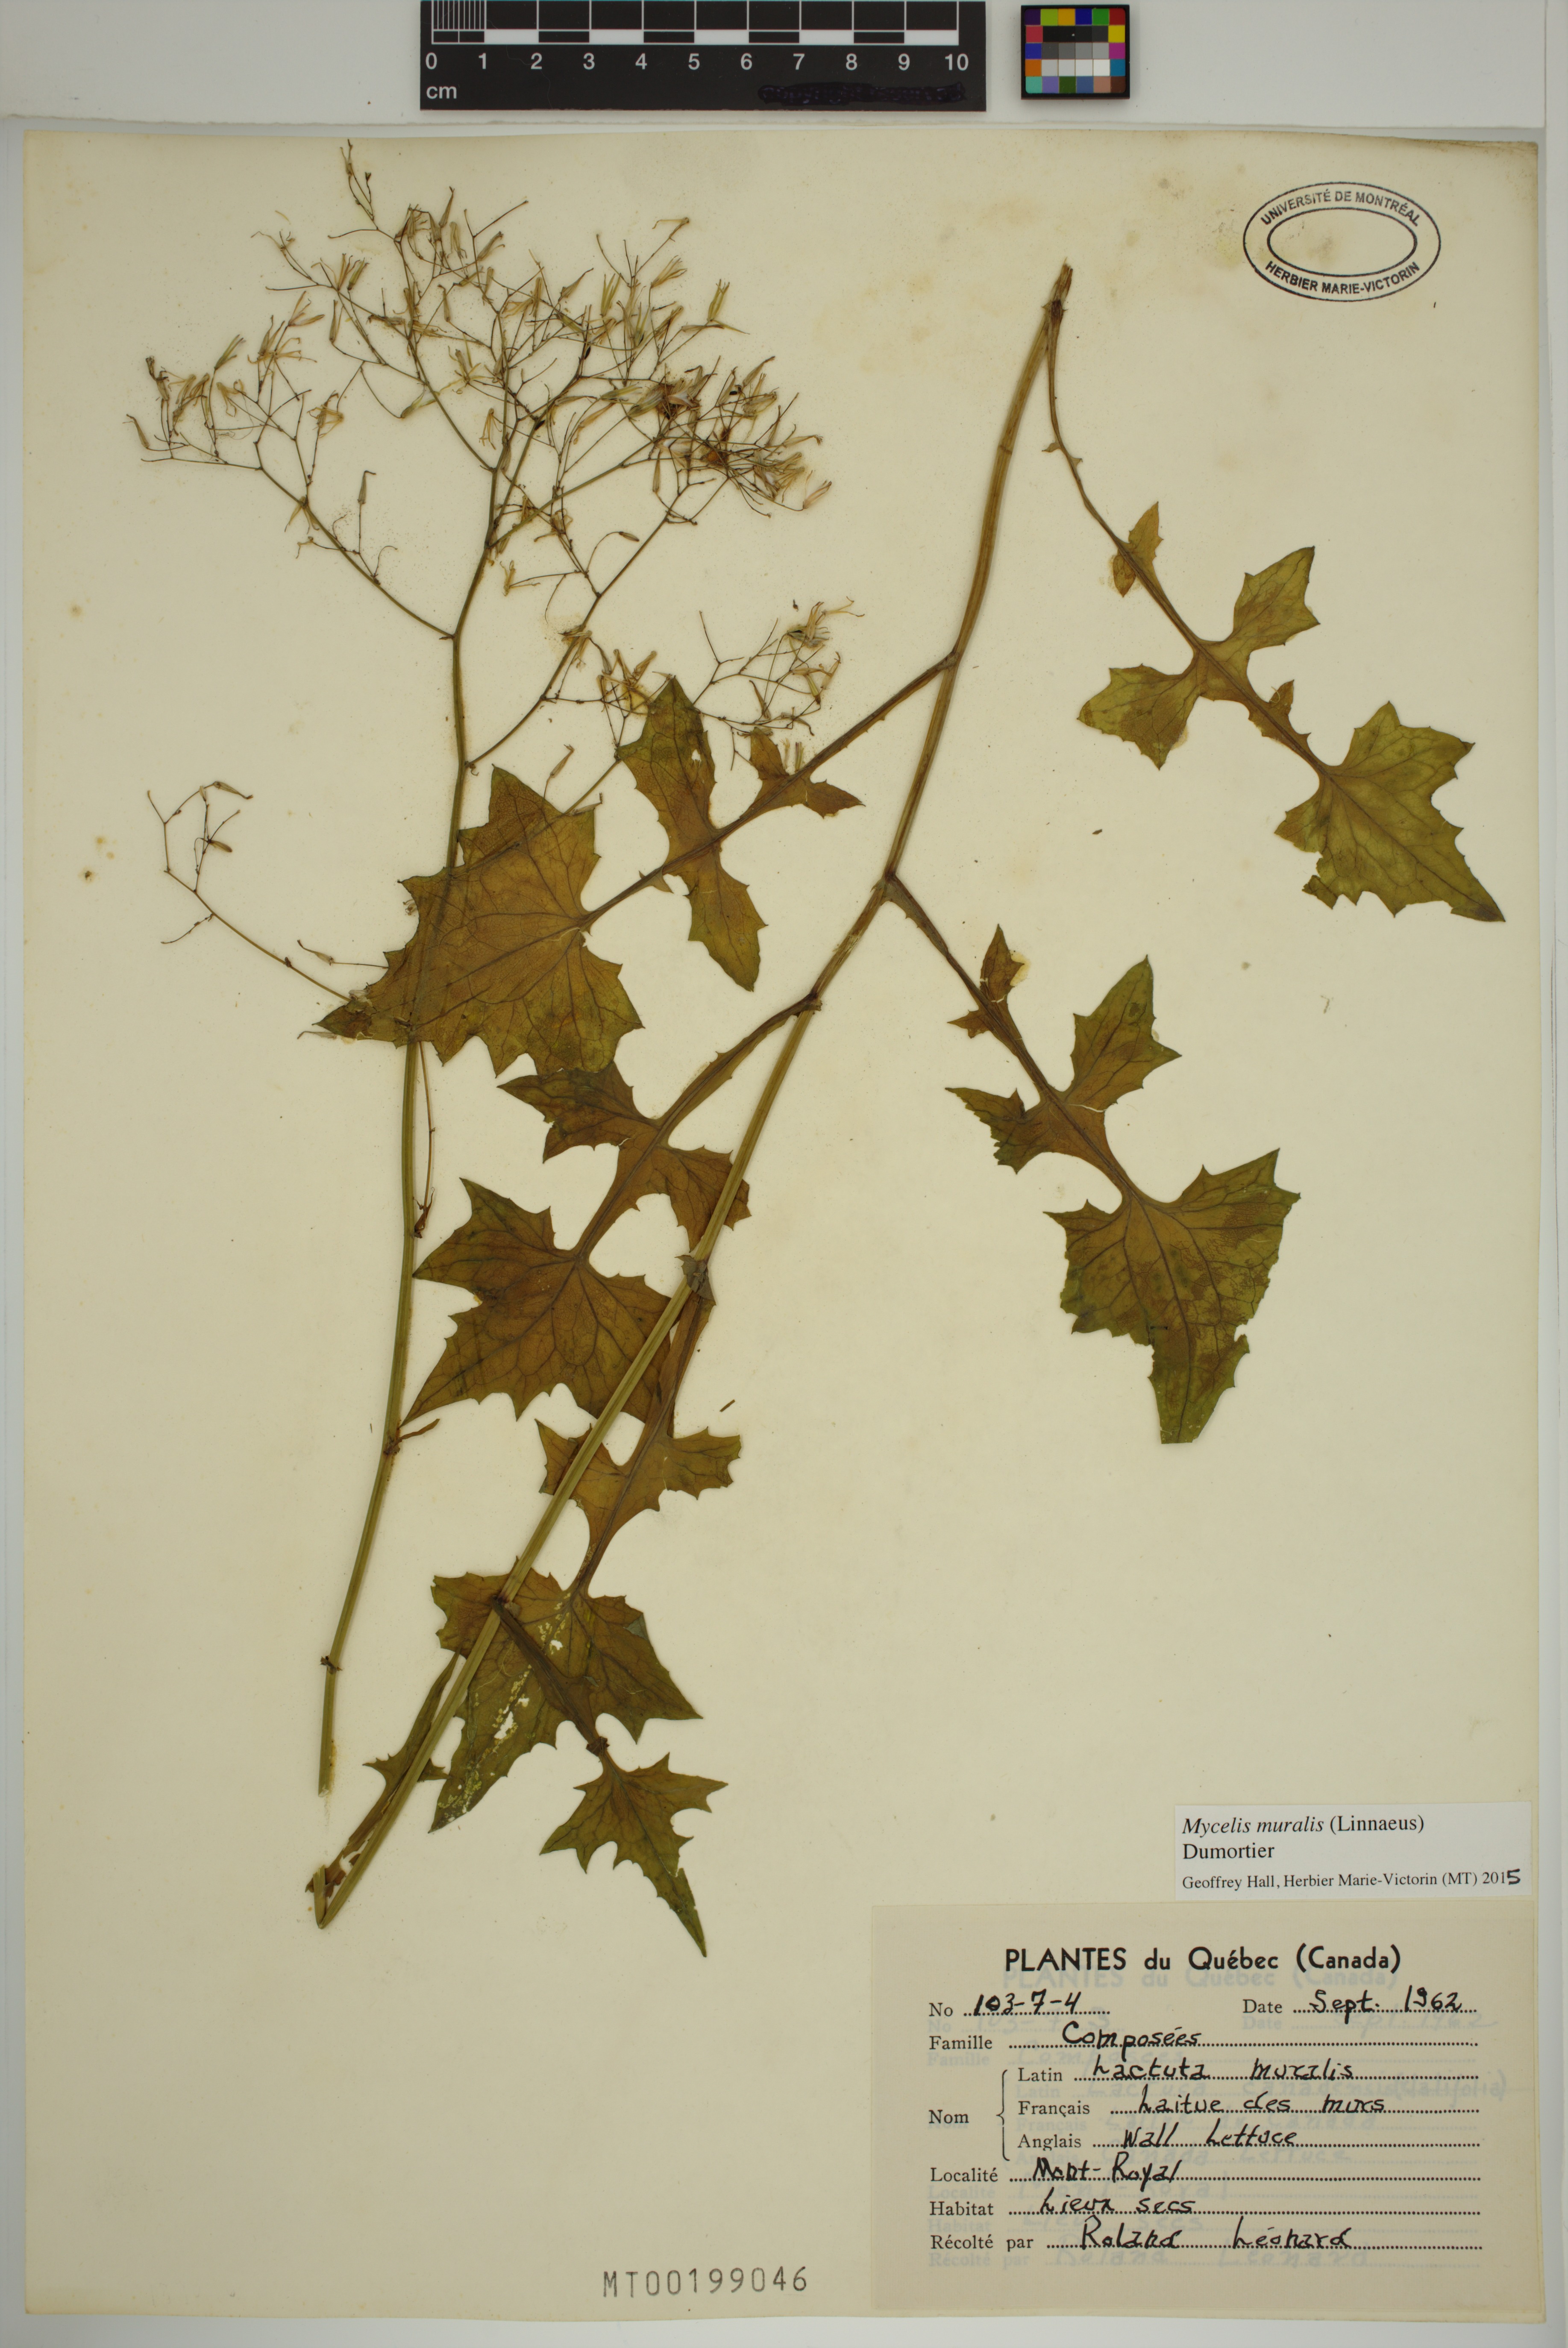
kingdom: Plantae
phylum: Tracheophyta
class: Magnoliopsida
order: Asterales
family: Asteraceae
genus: Mycelis
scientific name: Mycelis muralis
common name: Wall lettuce
